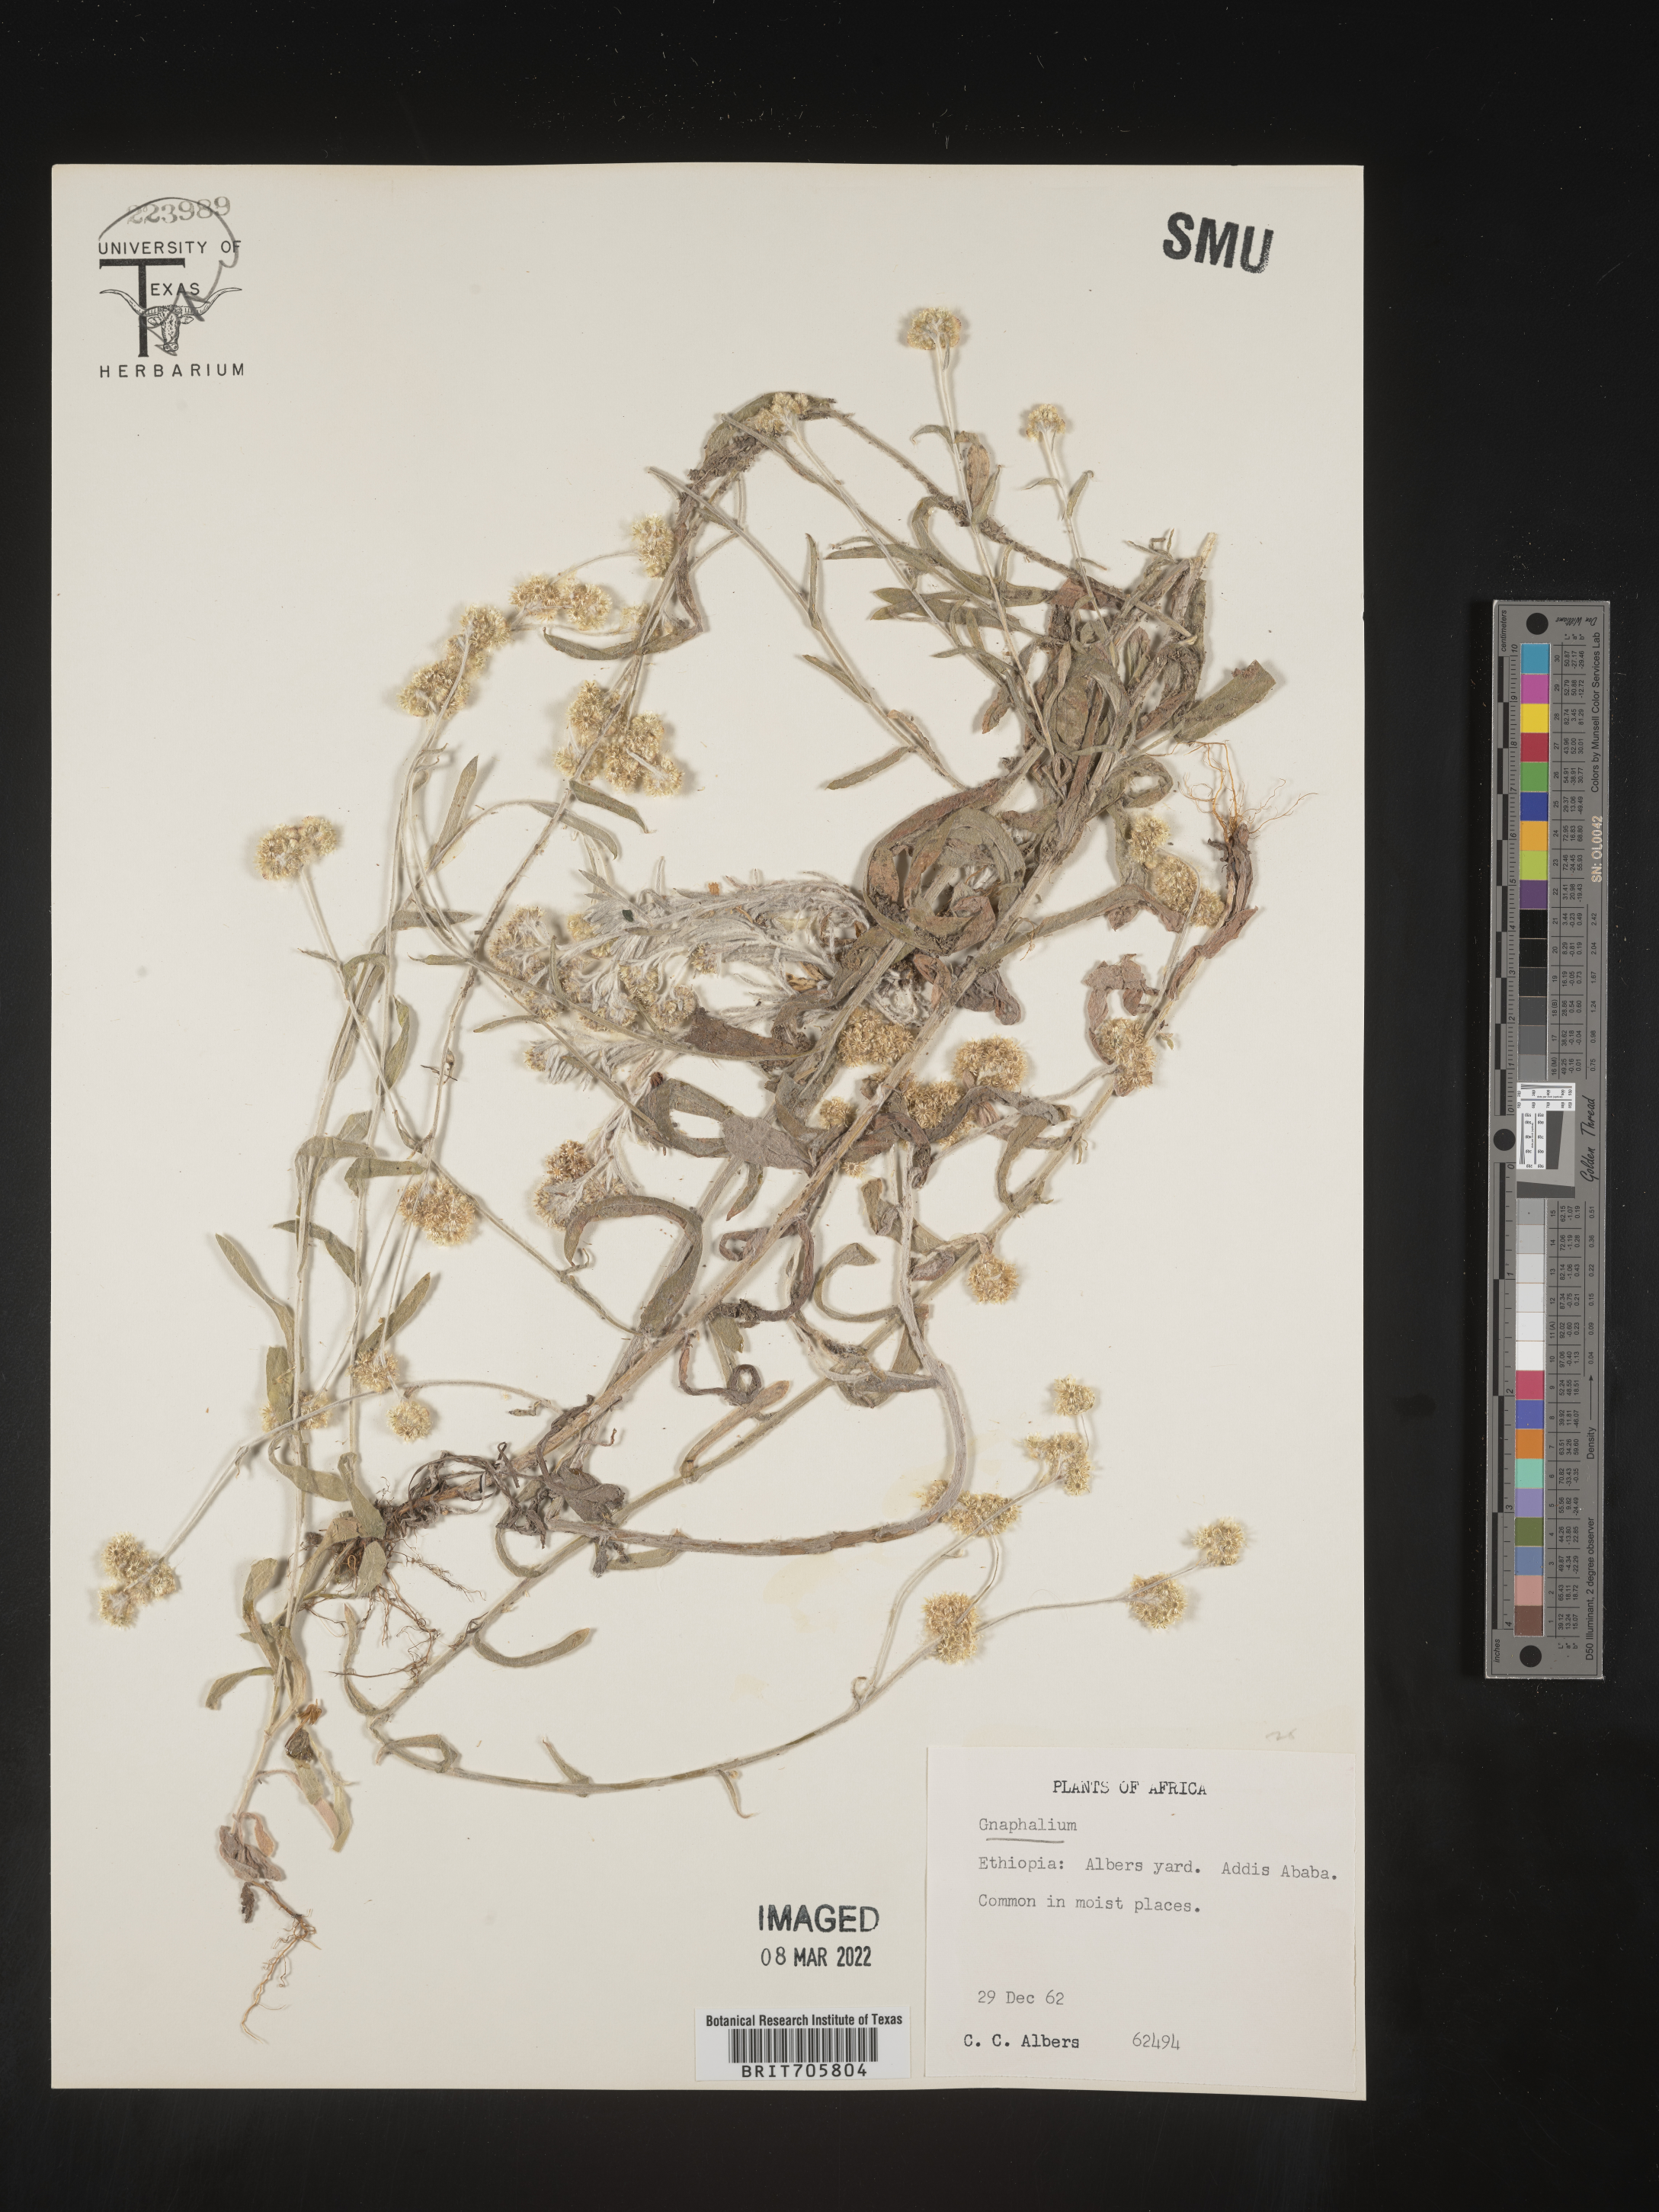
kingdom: Plantae
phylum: Tracheophyta
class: Magnoliopsida
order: Asterales
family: Asteraceae
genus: Pseudognaphalium
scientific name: Pseudognaphalium
